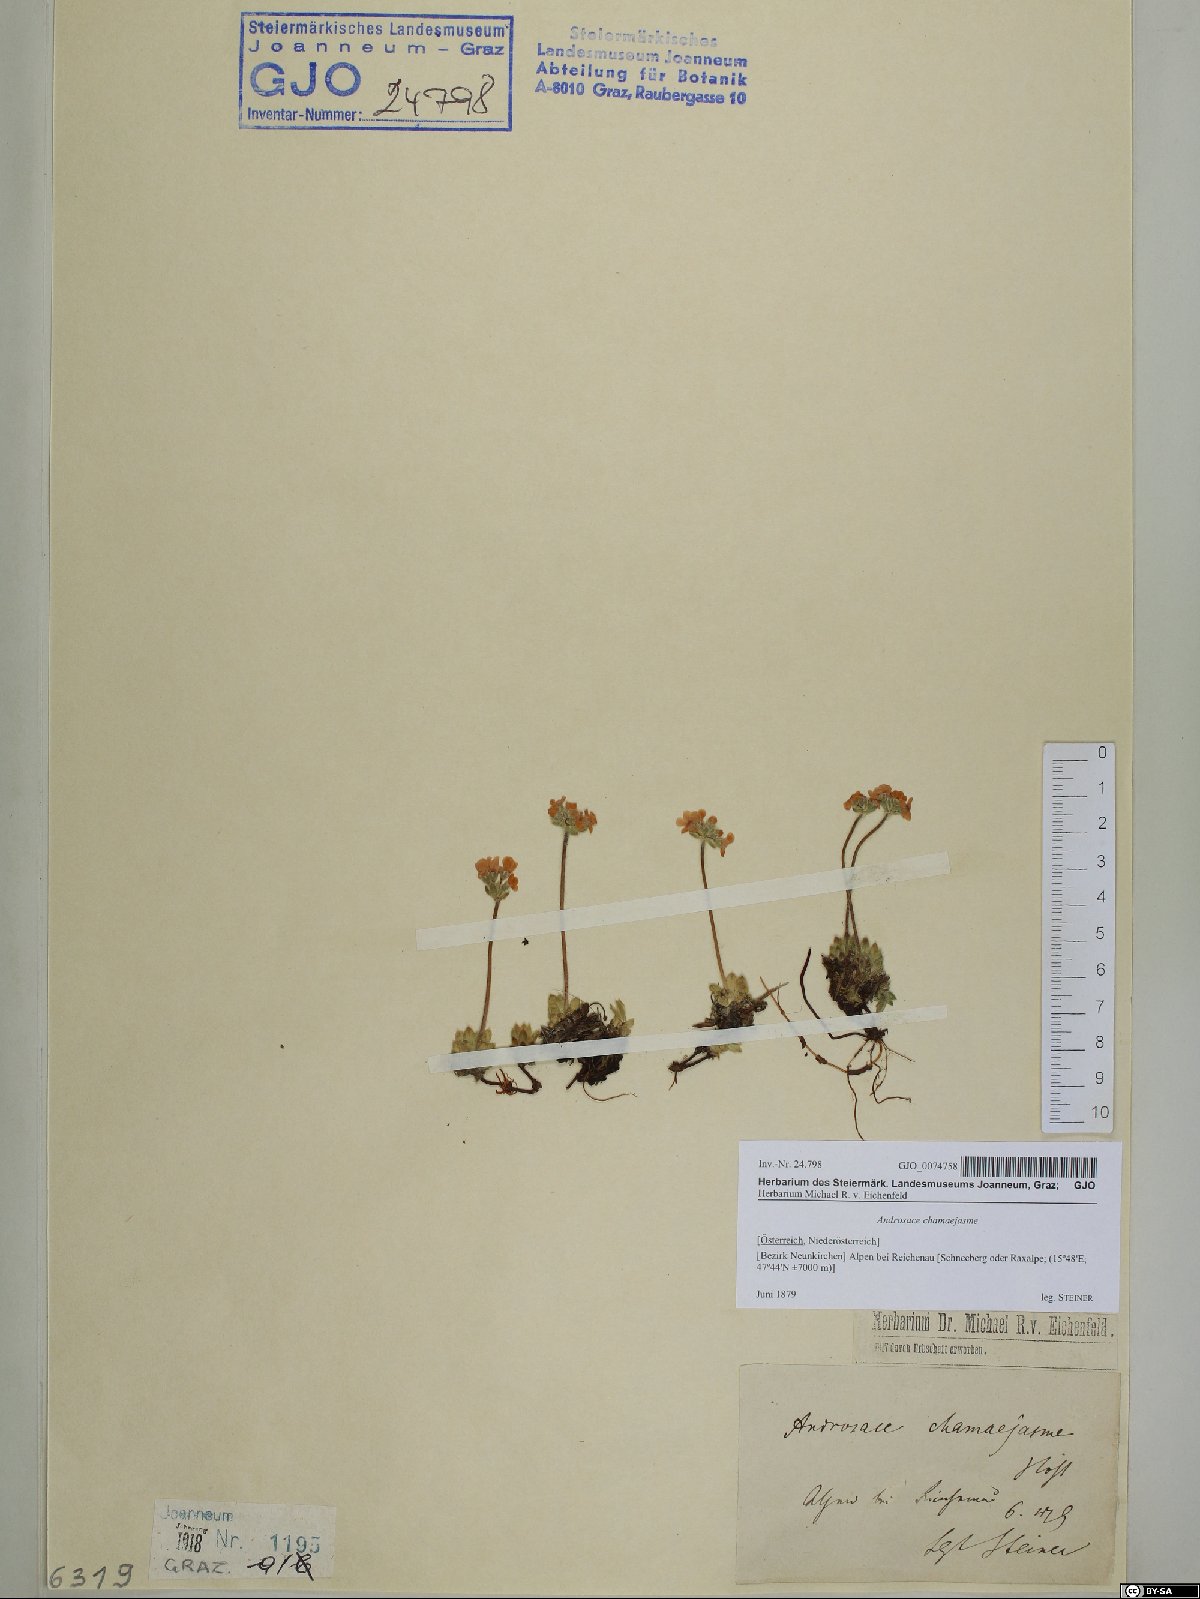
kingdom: Plantae
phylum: Tracheophyta
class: Magnoliopsida
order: Ericales
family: Primulaceae
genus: Androsace
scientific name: Androsace chamaejasme
